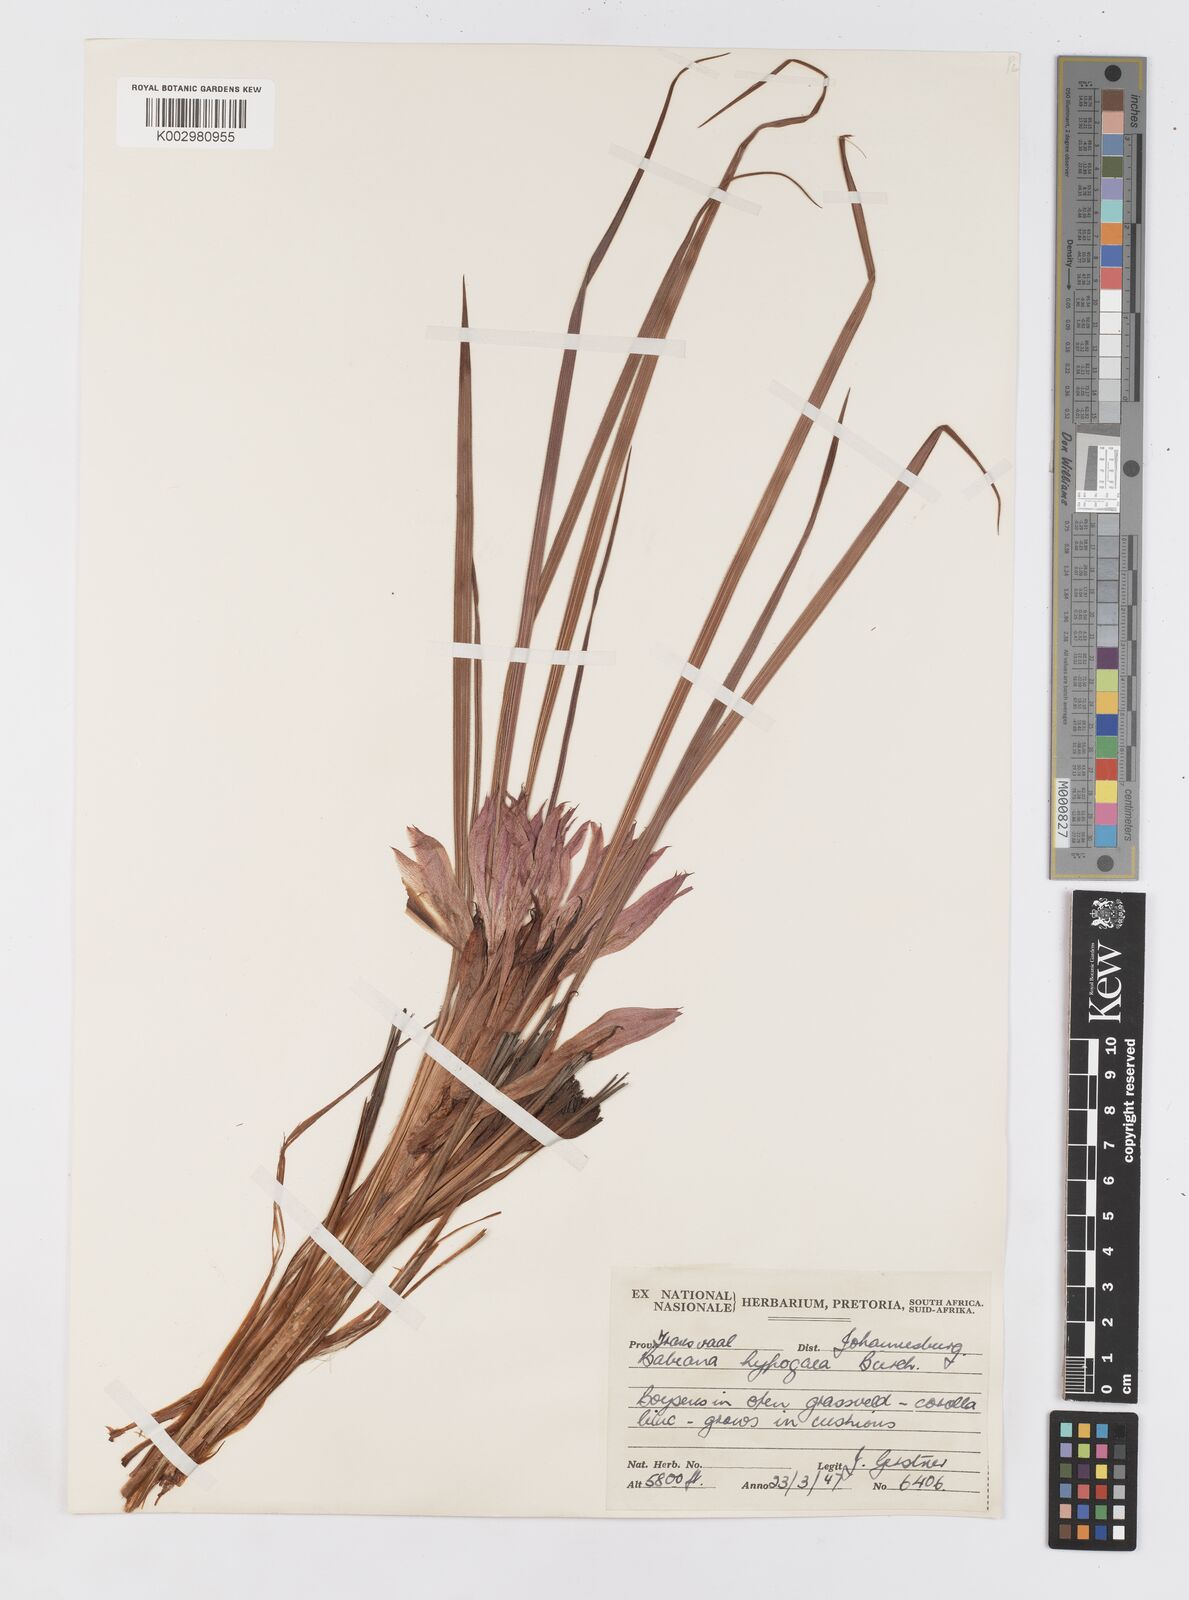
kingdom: Plantae
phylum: Tracheophyta
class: Liliopsida
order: Asparagales
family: Iridaceae
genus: Babiana
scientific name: Babiana bainesii
